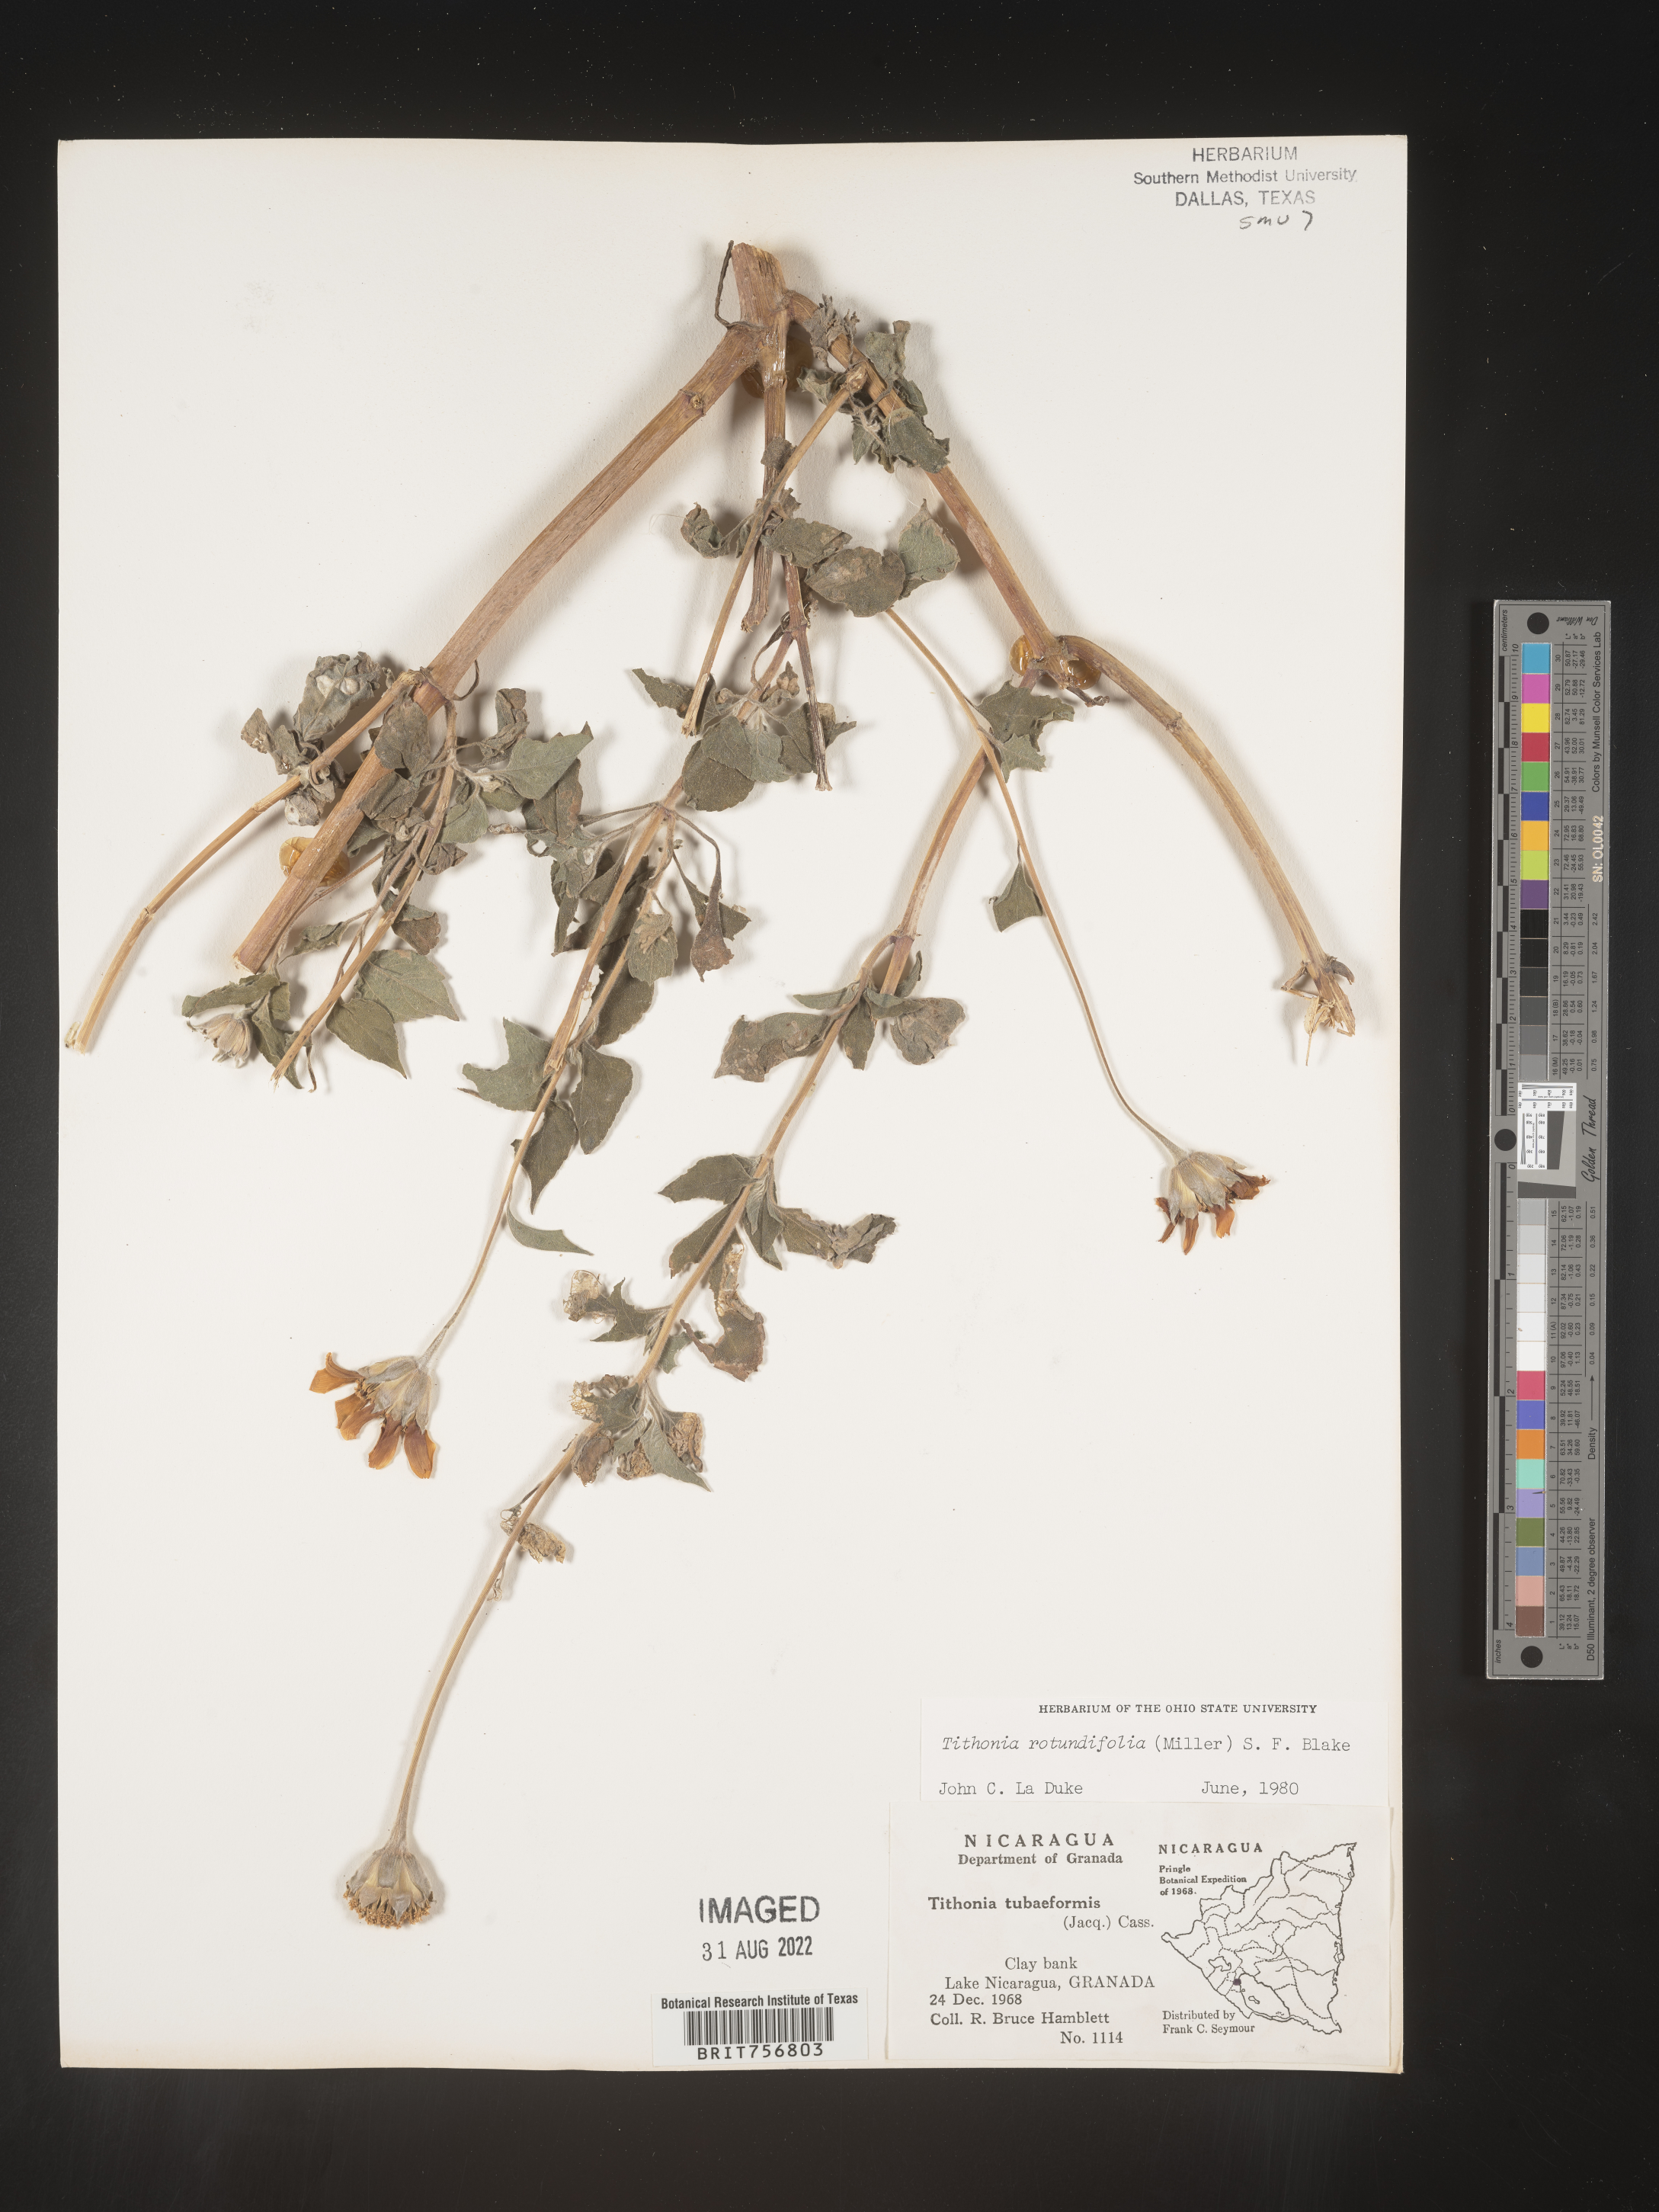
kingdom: Plantae
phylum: Tracheophyta
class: Magnoliopsida
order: Asterales
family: Asteraceae
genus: Tithonia
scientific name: Tithonia
